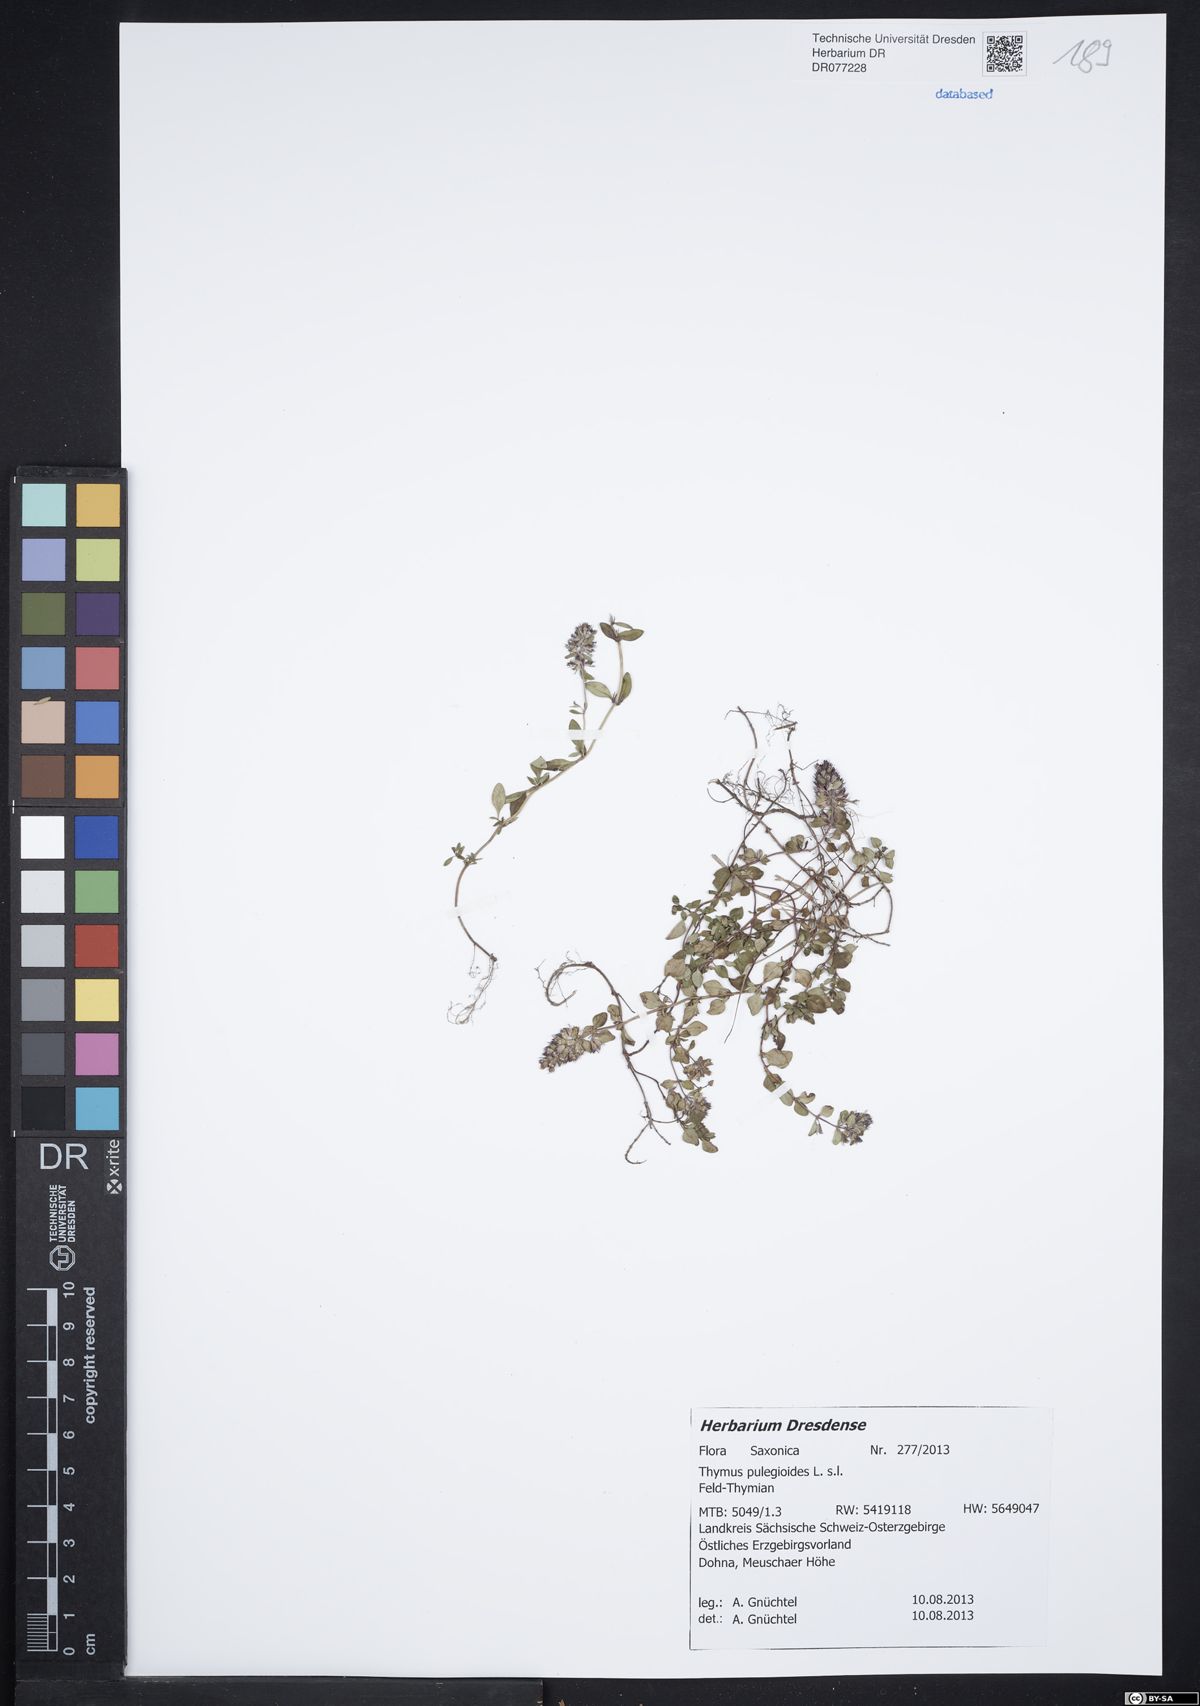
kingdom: Plantae
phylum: Tracheophyta
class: Magnoliopsida
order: Lamiales
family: Lamiaceae
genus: Thymus
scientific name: Thymus pulegioides
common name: Large thyme
